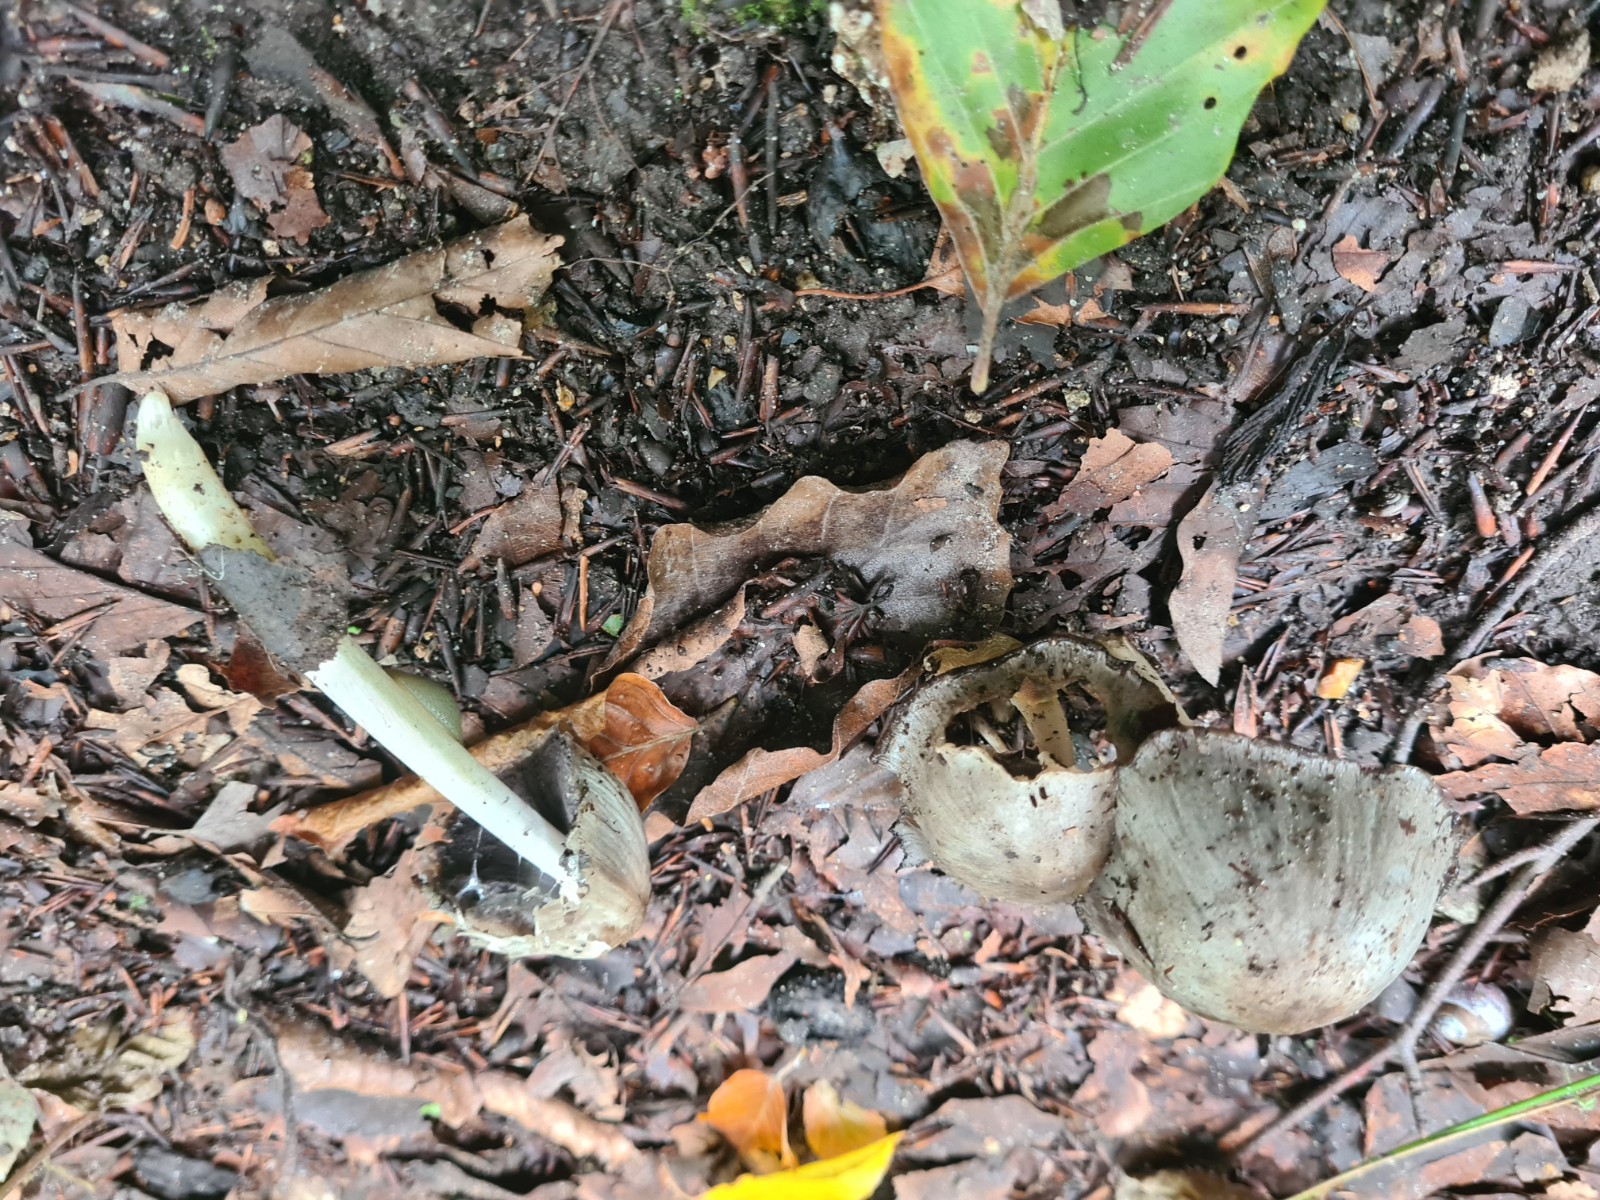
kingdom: Fungi
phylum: Basidiomycota
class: Agaricomycetes
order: Agaricales
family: Psathyrellaceae
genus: Coprinopsis
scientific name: Coprinopsis atramentaria
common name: almindelig blækhat
